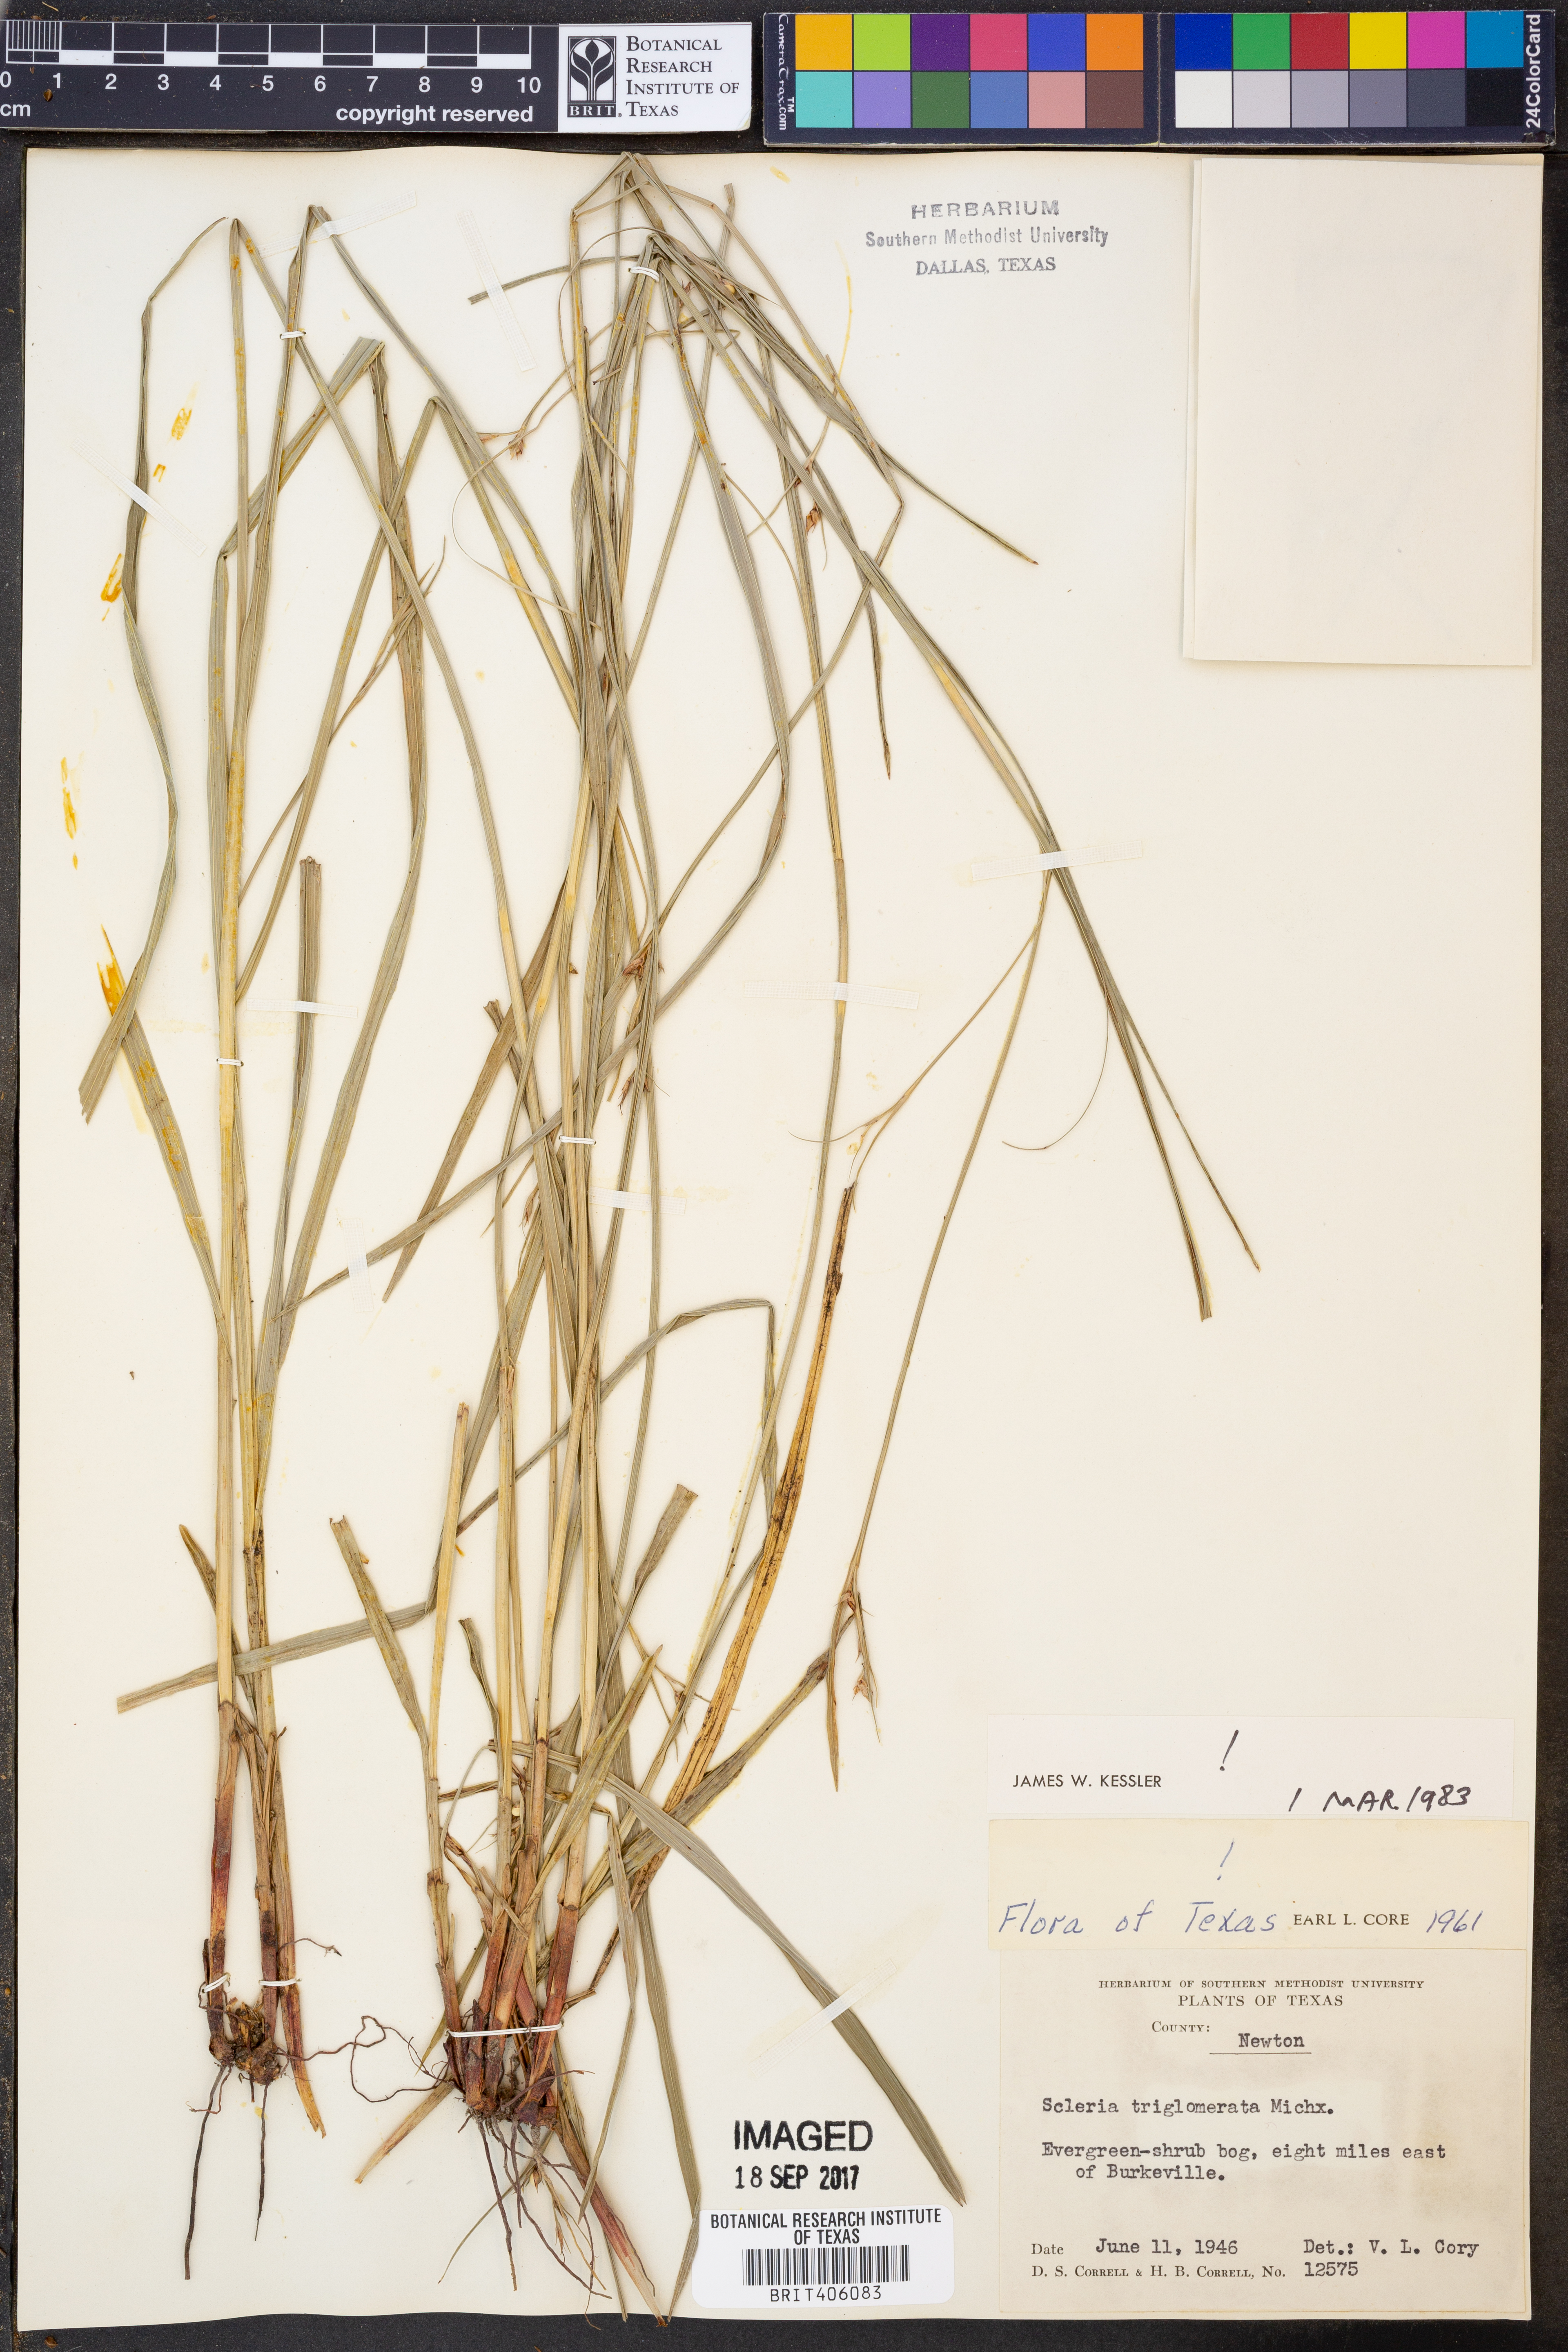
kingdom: Plantae
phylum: Tracheophyta
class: Liliopsida
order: Poales
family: Cyperaceae
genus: Scleria
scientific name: Scleria triglomerata
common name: Whip nutrush
